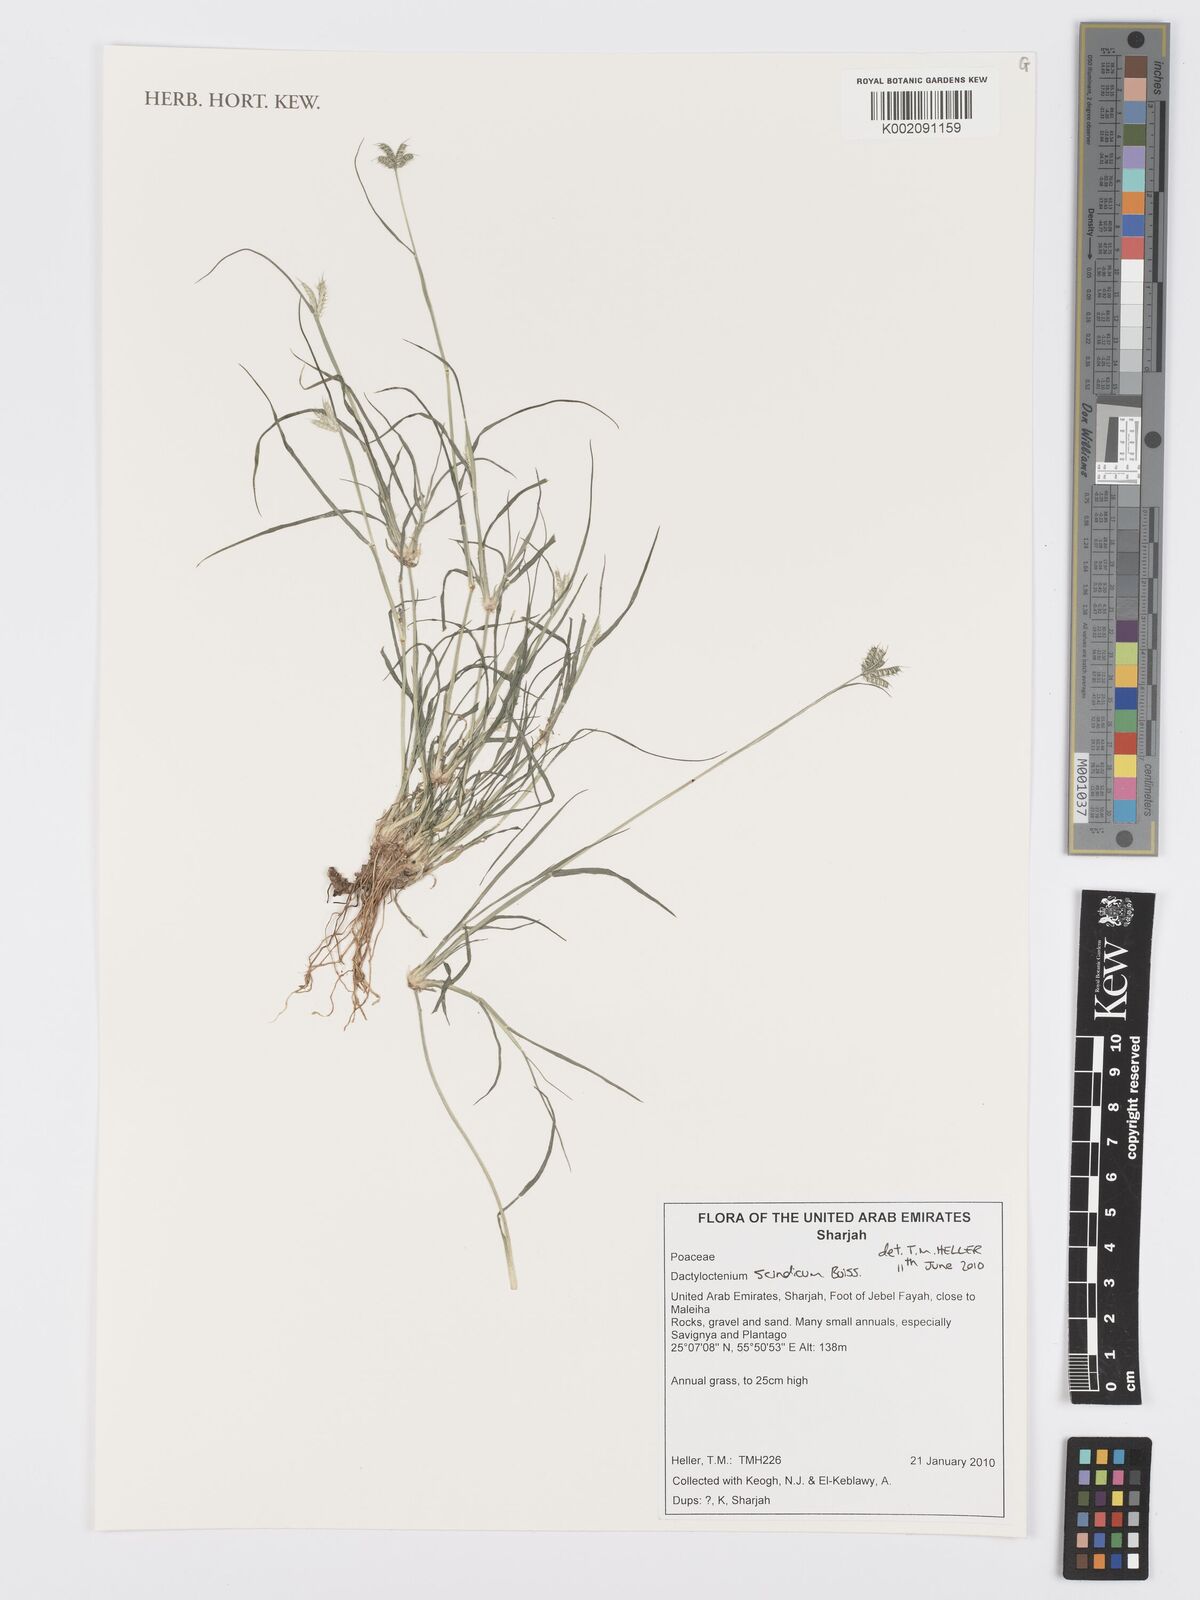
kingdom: Plantae
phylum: Tracheophyta
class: Liliopsida
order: Poales
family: Poaceae
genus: Dactyloctenium
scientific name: Dactyloctenium scindicum
